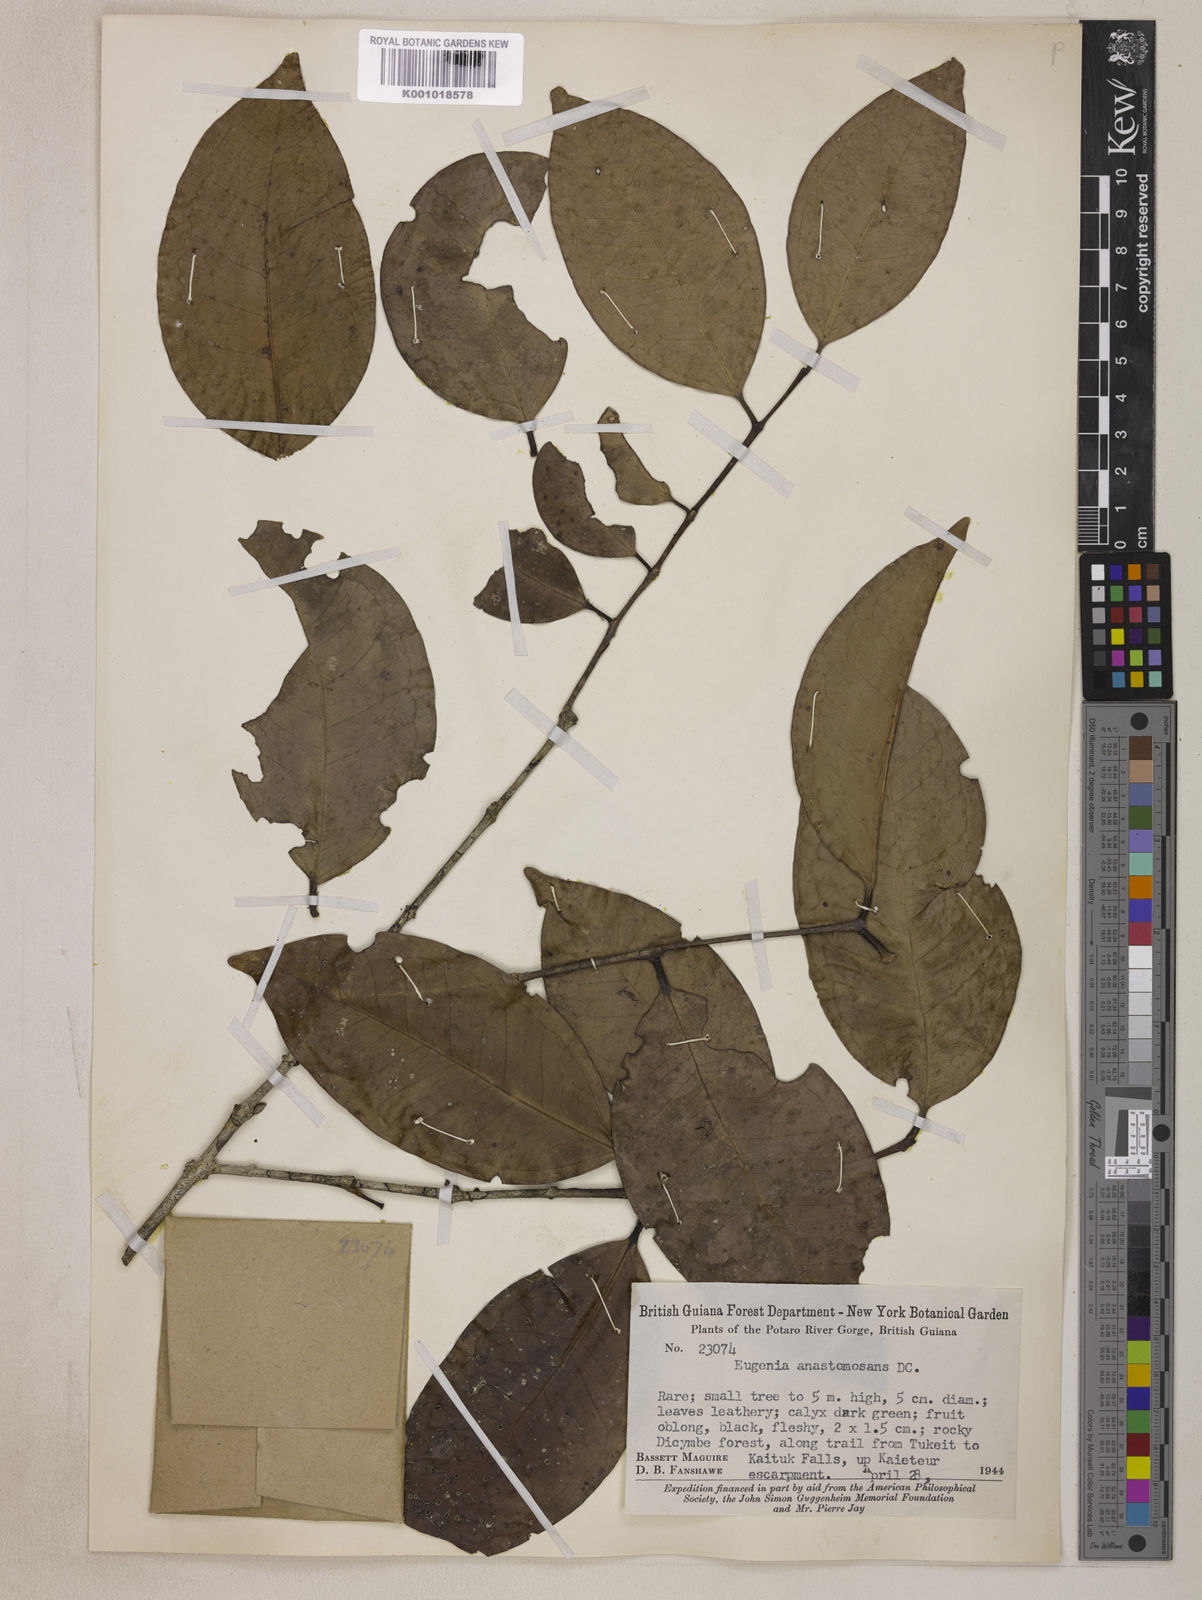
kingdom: Plantae
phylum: Tracheophyta
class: Magnoliopsida
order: Myrtales
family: Myrtaceae
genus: Eugenia
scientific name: Eugenia anastomosans
